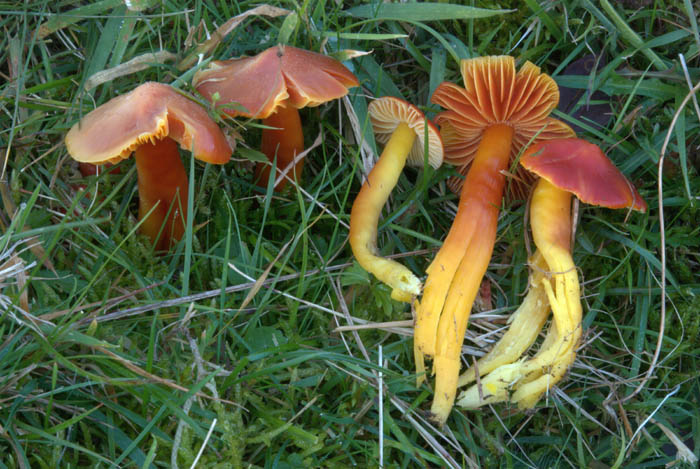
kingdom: Fungi
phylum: Basidiomycota
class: Agaricomycetes
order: Agaricales
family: Hygrophoraceae
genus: Hygrocybe
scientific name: Hygrocybe splendidissima
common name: knaldrød vokshat
